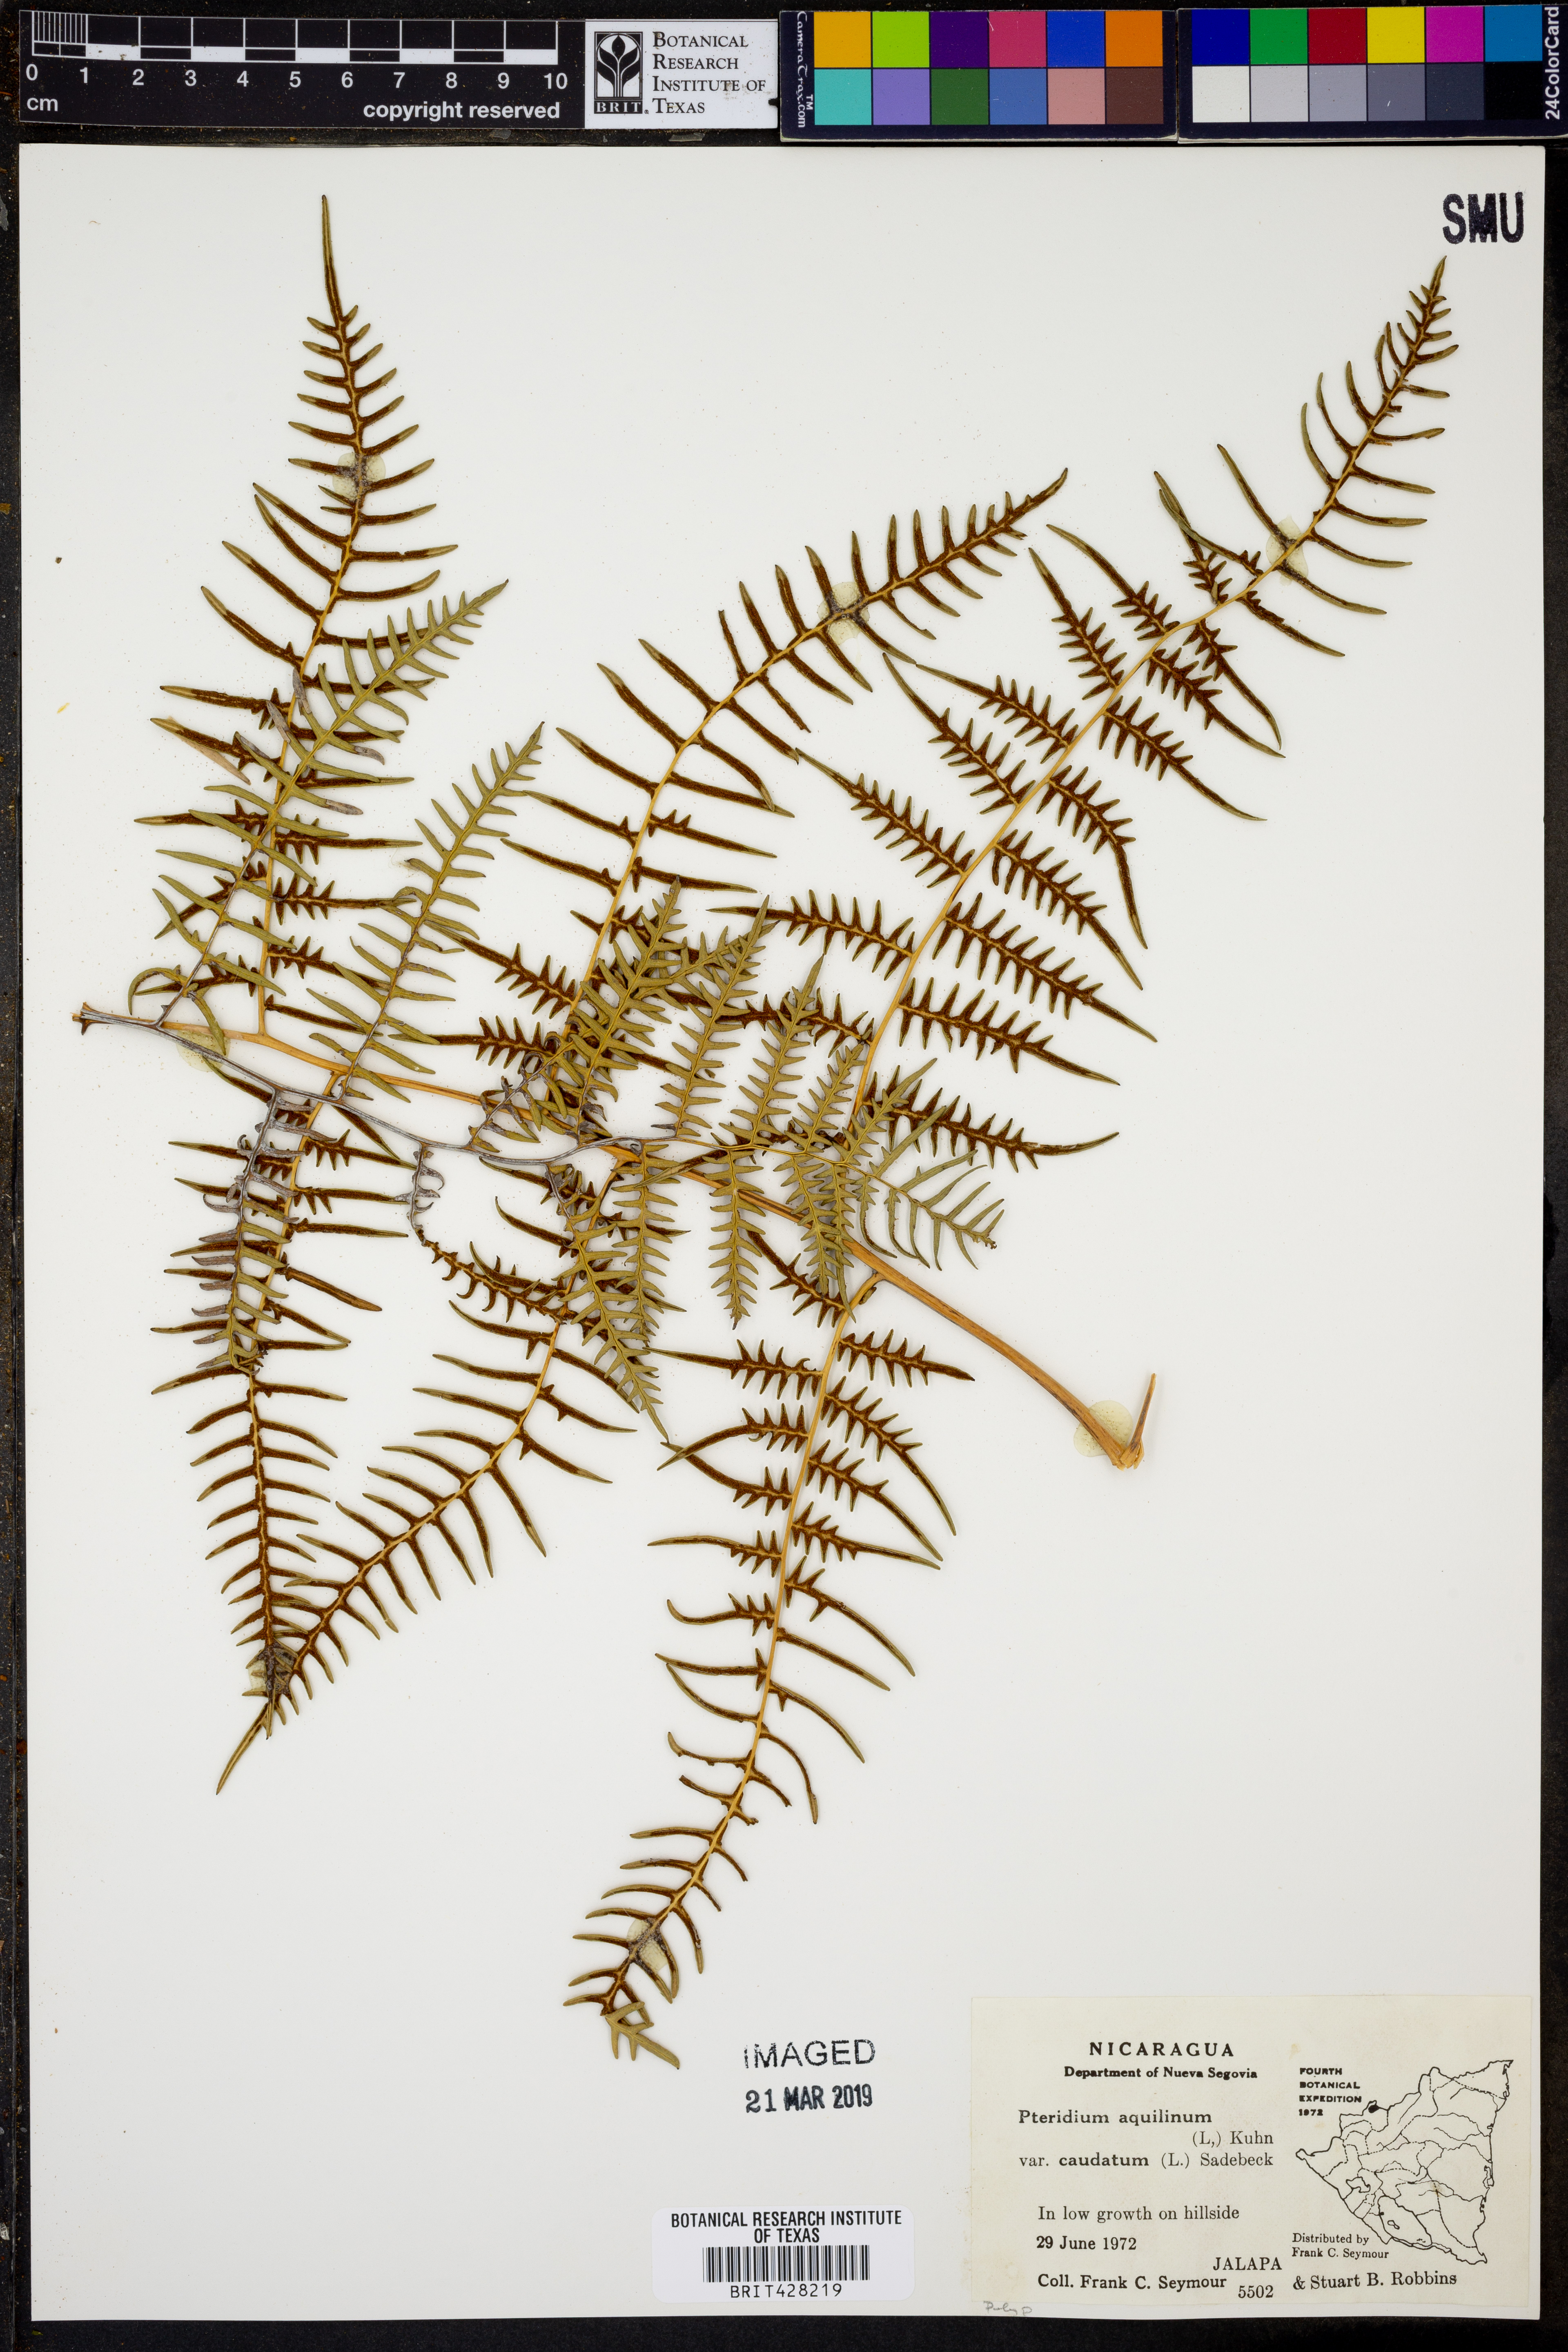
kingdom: Plantae
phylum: Tracheophyta
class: Polypodiopsida
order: Polypodiales
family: Dennstaedtiaceae
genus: Pteridium
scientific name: Pteridium caudatum
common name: Southern bracken fern
